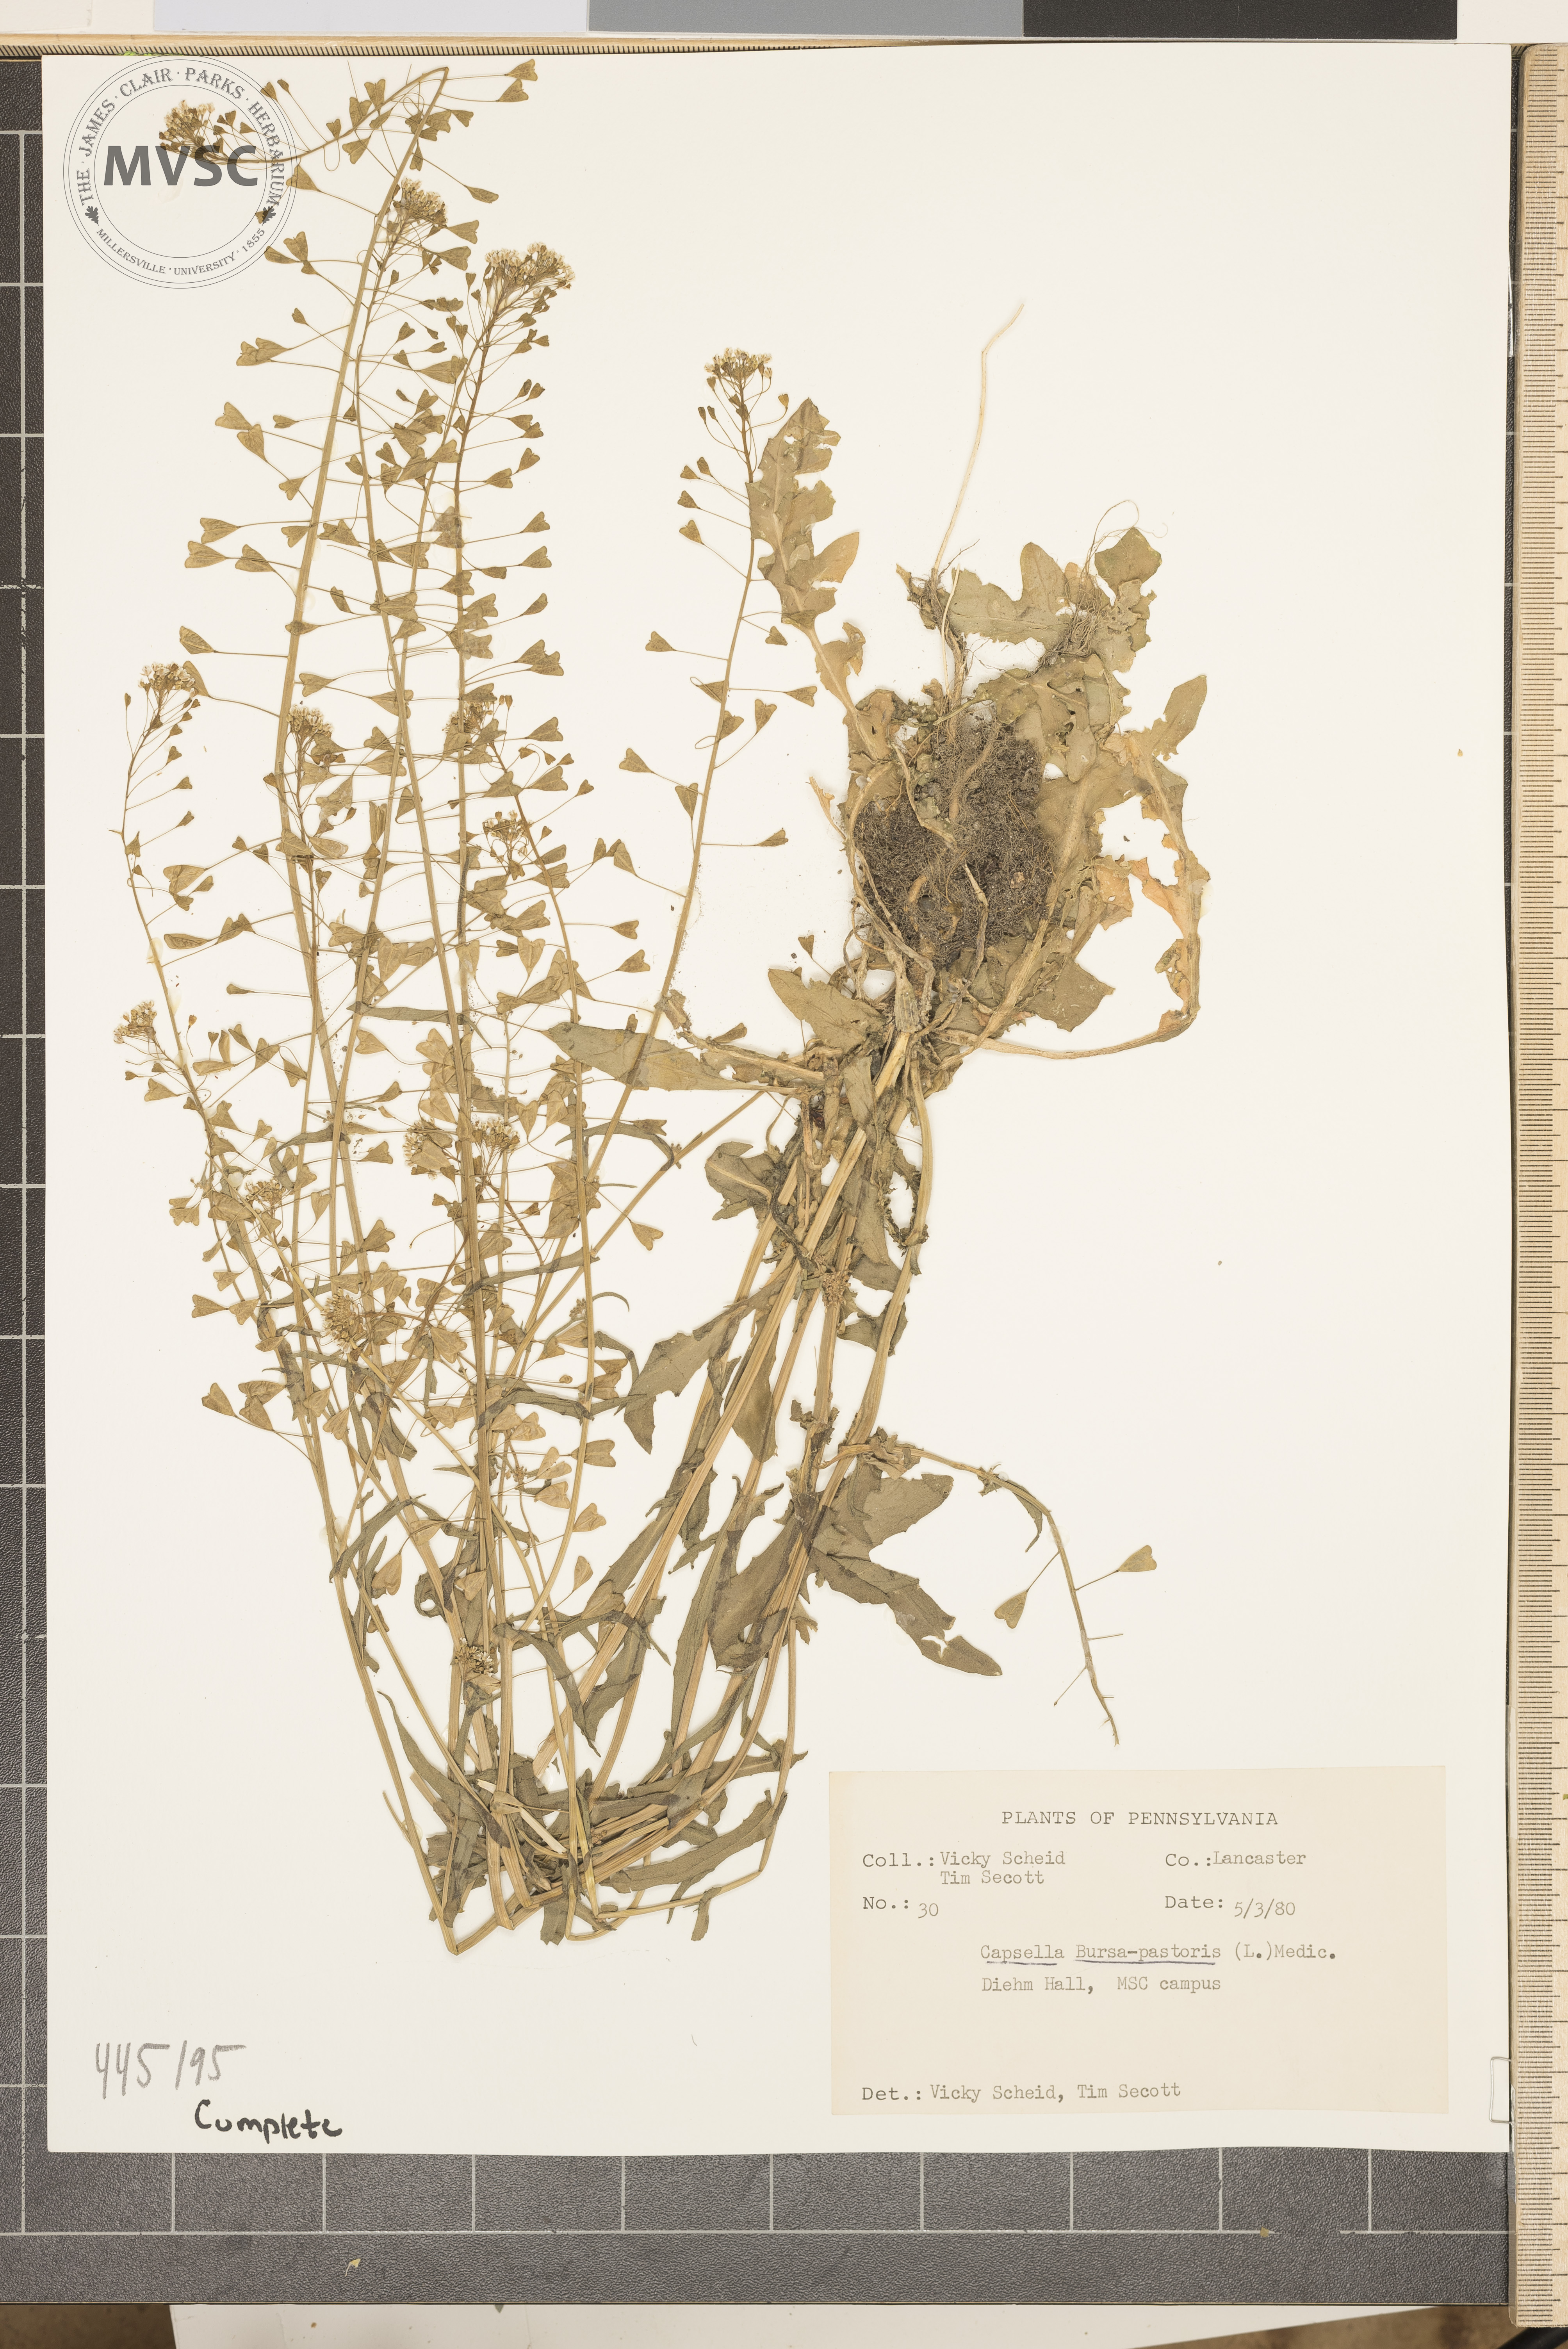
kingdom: Plantae
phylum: Tracheophyta
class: Magnoliopsida
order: Brassicales
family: Brassicaceae
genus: Capsella
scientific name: Capsella bursa-pastoris
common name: Shepherd's purse
